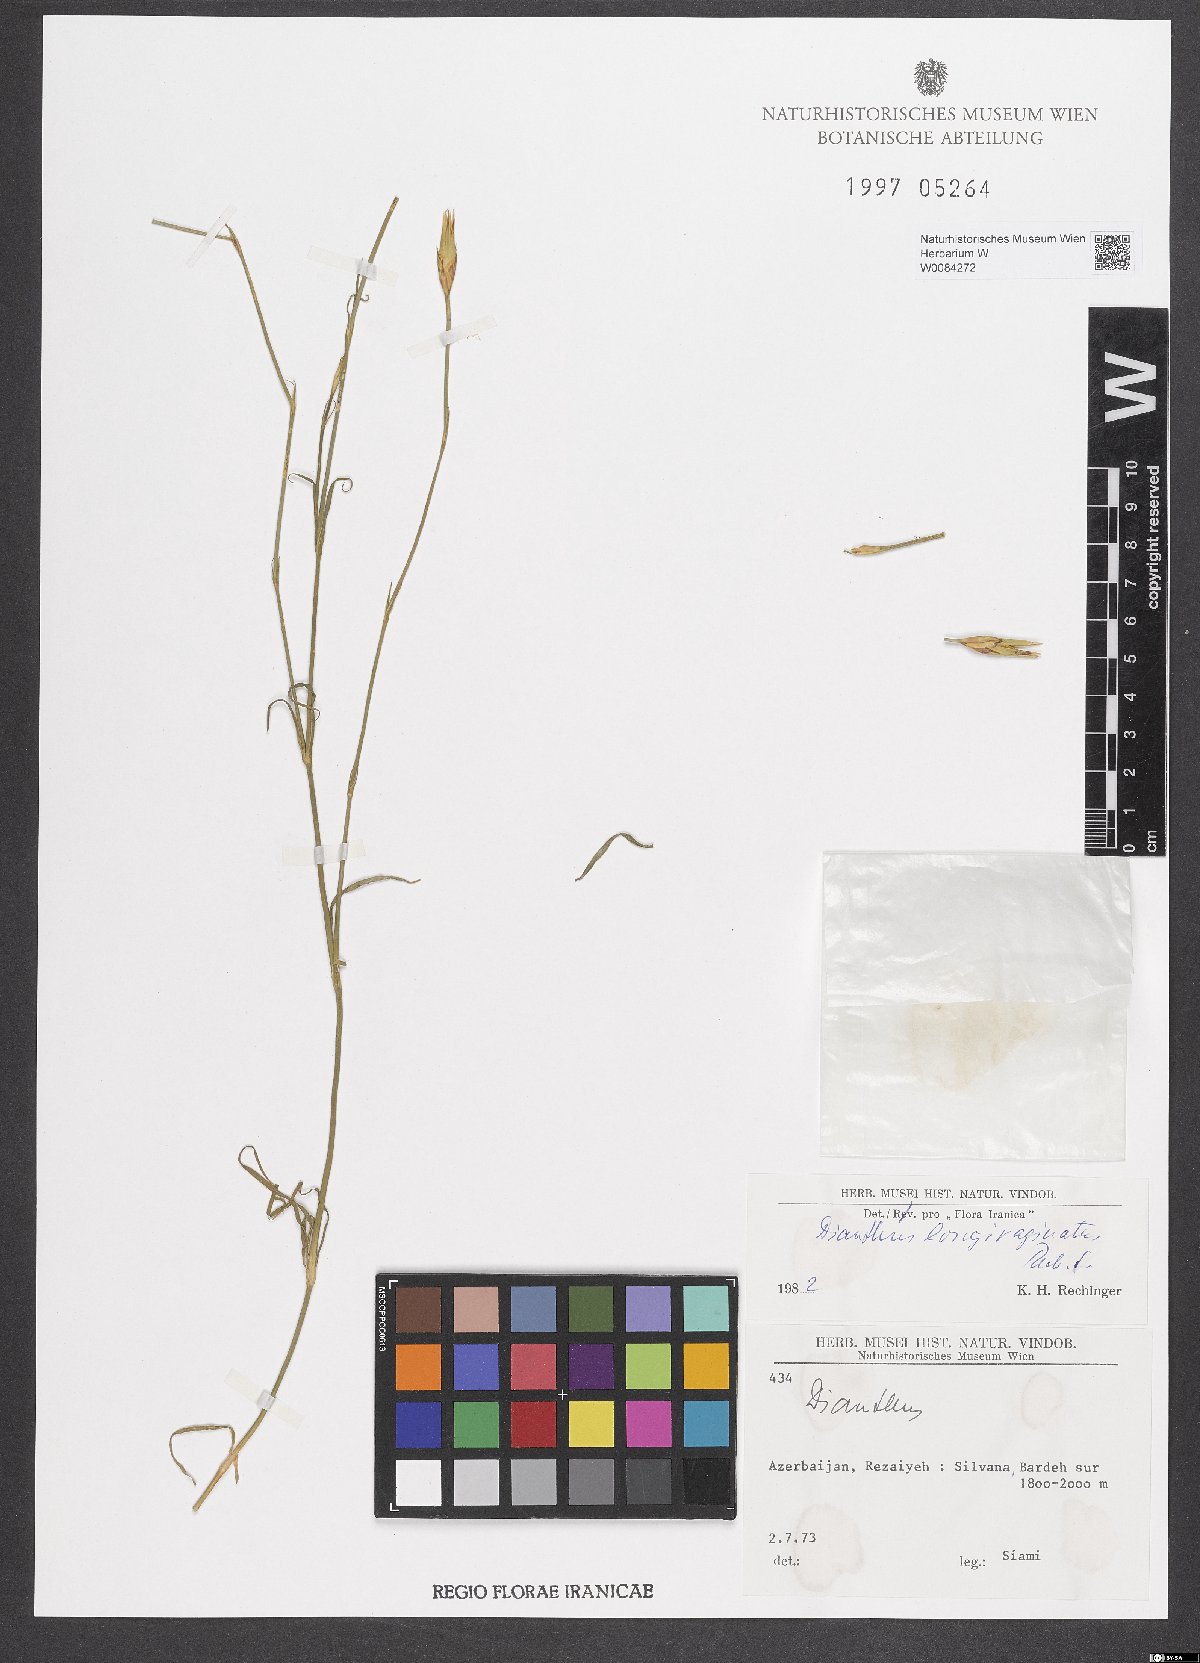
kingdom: Plantae
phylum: Tracheophyta
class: Magnoliopsida
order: Caryophyllales
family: Caryophyllaceae
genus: Dianthus
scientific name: Dianthus longivaginatus
